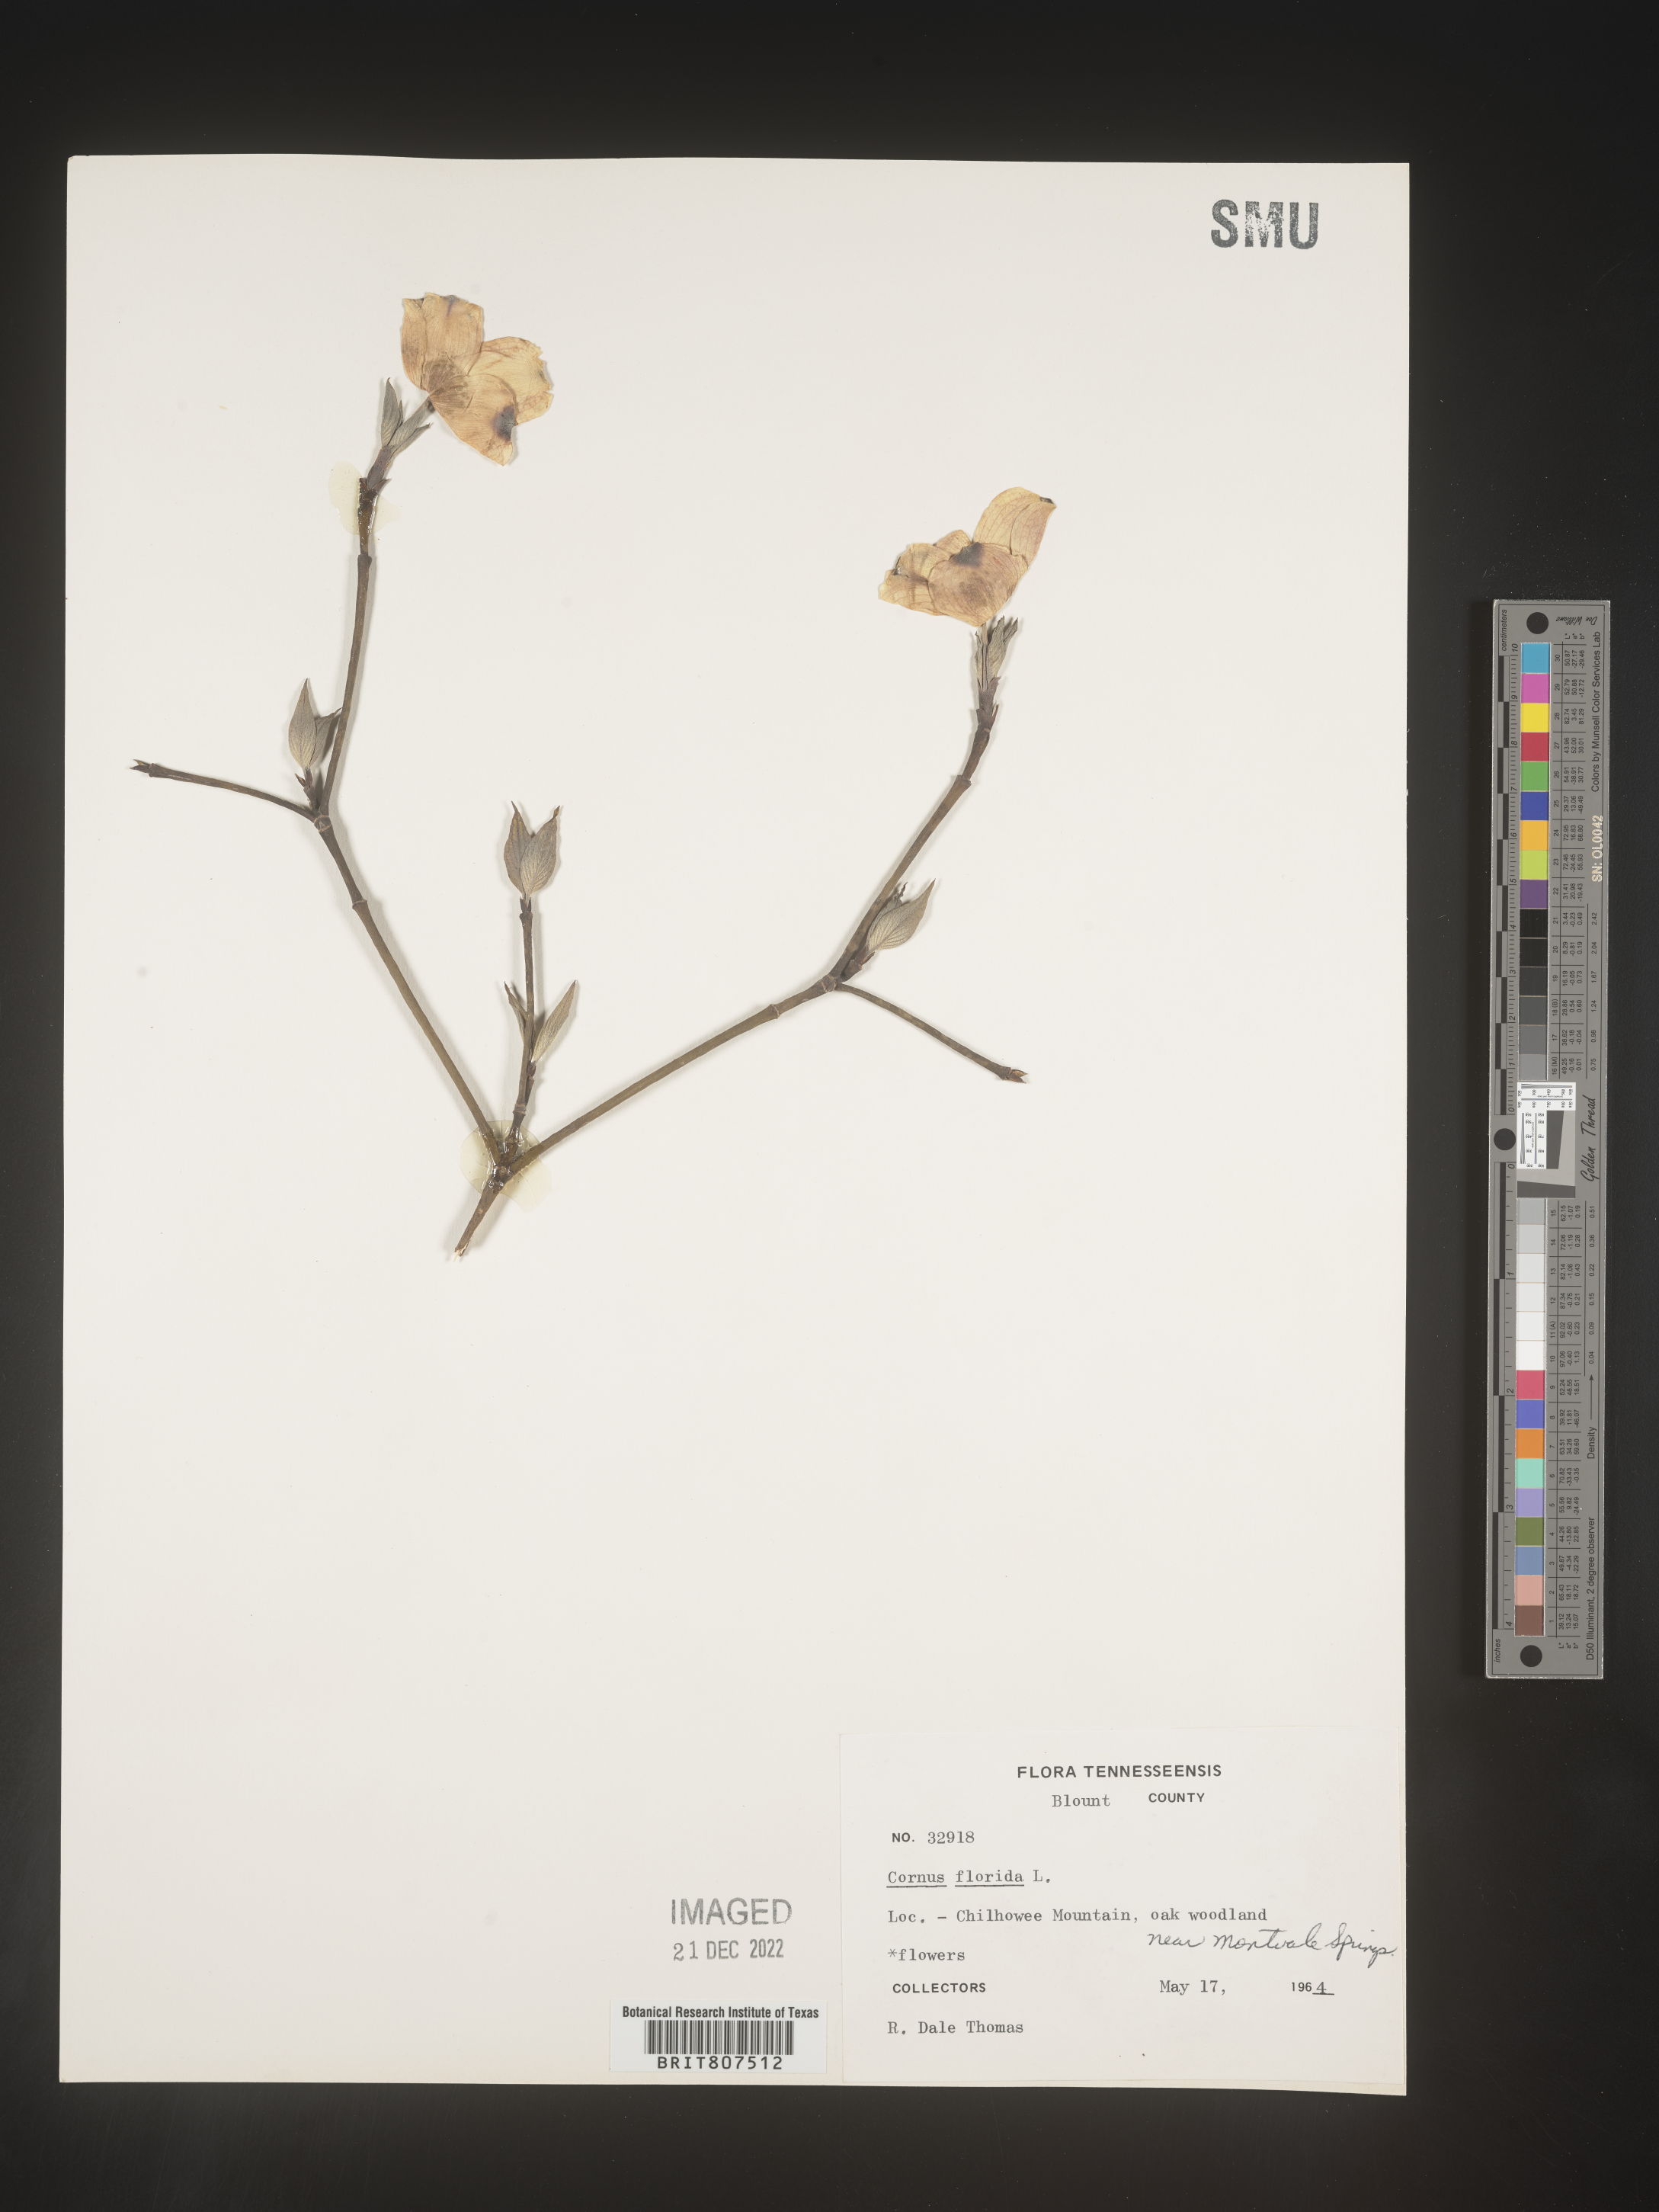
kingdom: Plantae
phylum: Tracheophyta
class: Magnoliopsida
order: Cornales
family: Cornaceae
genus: Cornus
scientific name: Cornus florida
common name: Flowering dogwood
